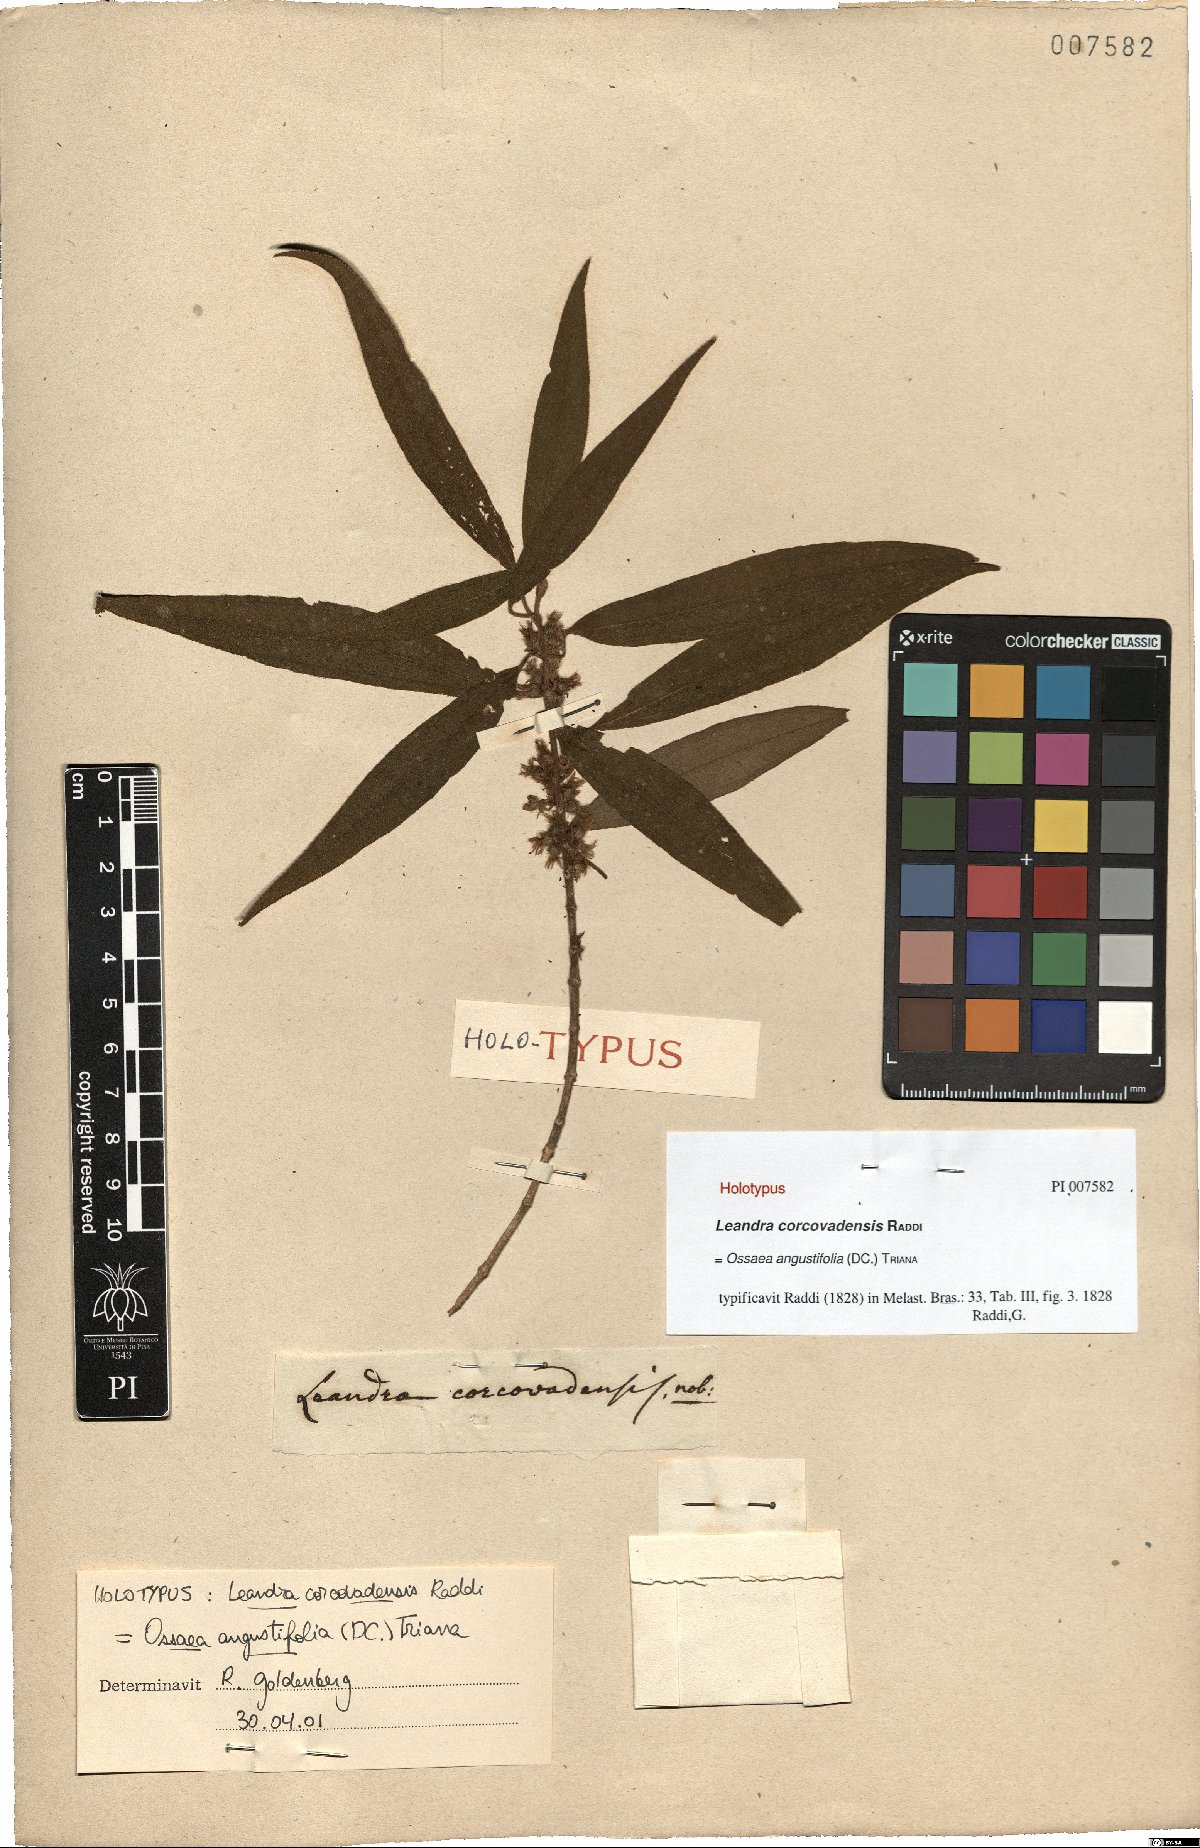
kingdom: Plantae
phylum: Tracheophyta
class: Magnoliopsida
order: Myrtales
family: Melastomataceae
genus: Miconia
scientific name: Miconia corcovadensis
